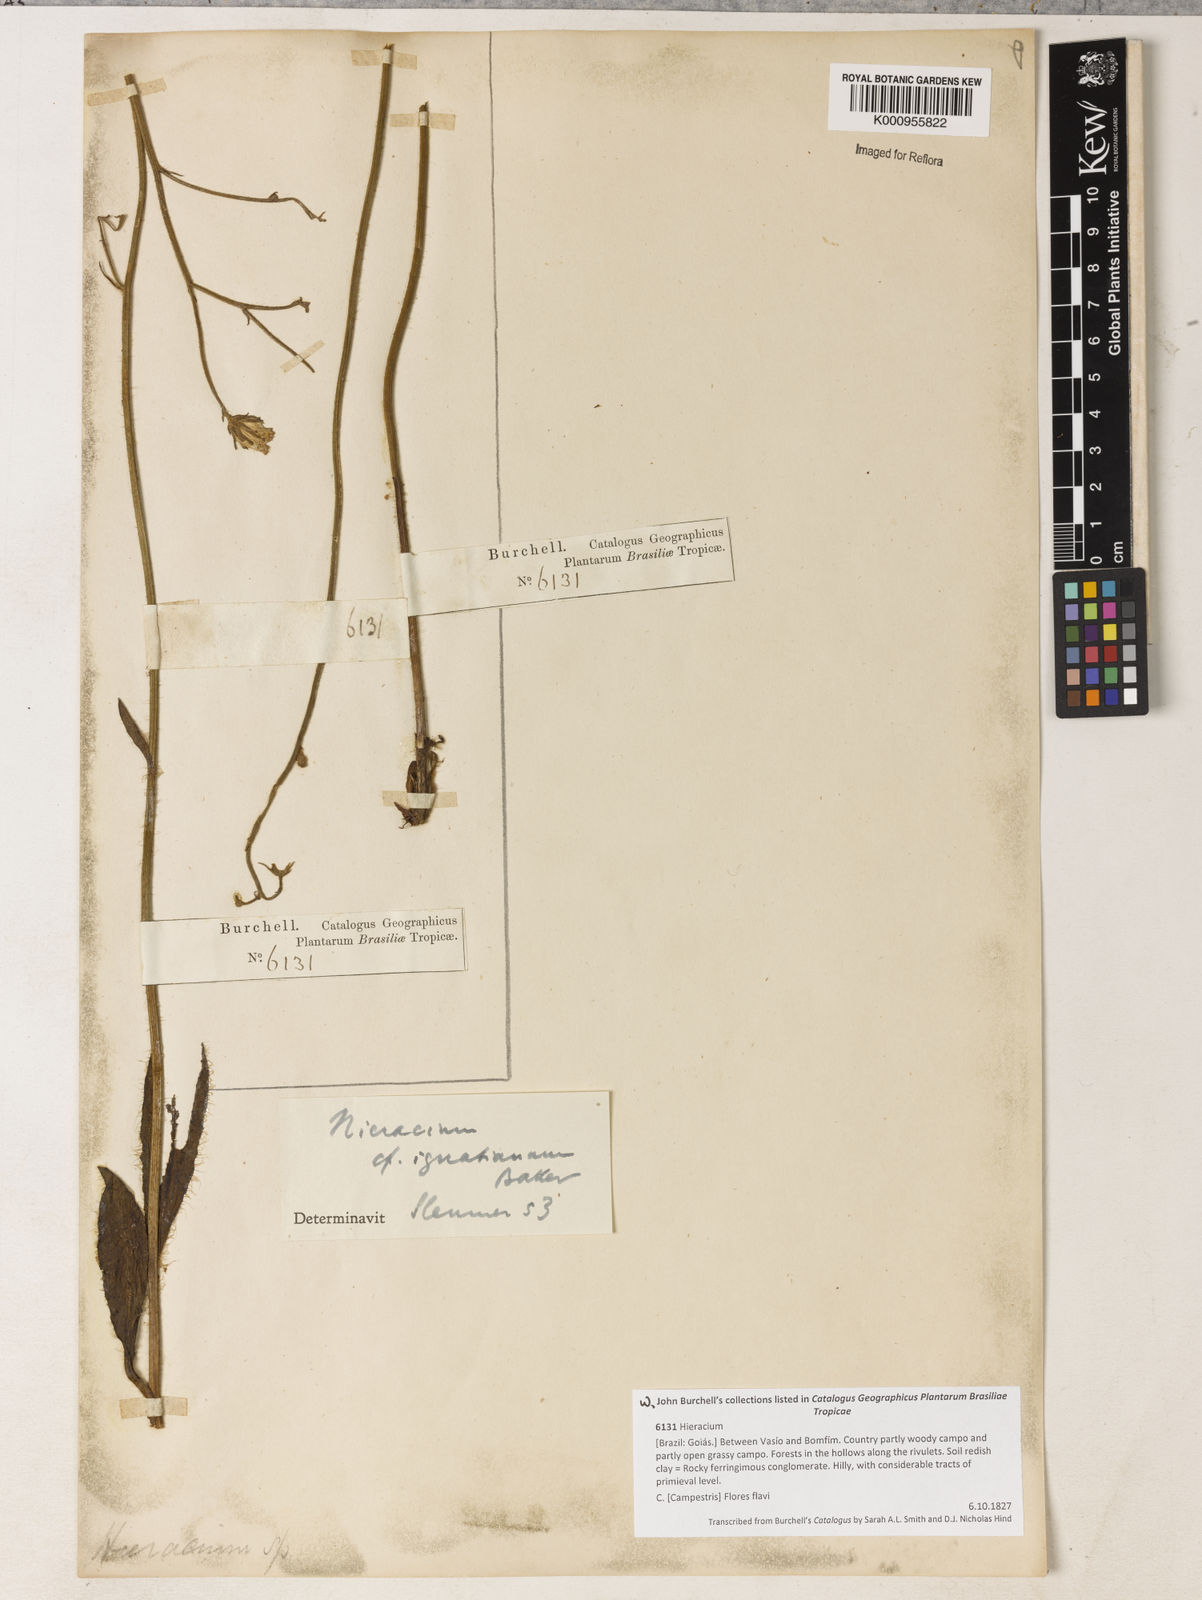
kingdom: Plantae
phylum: Tracheophyta
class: Magnoliopsida
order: Asterales
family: Asteraceae
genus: Hieracium
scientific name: Hieracium ignatianum
